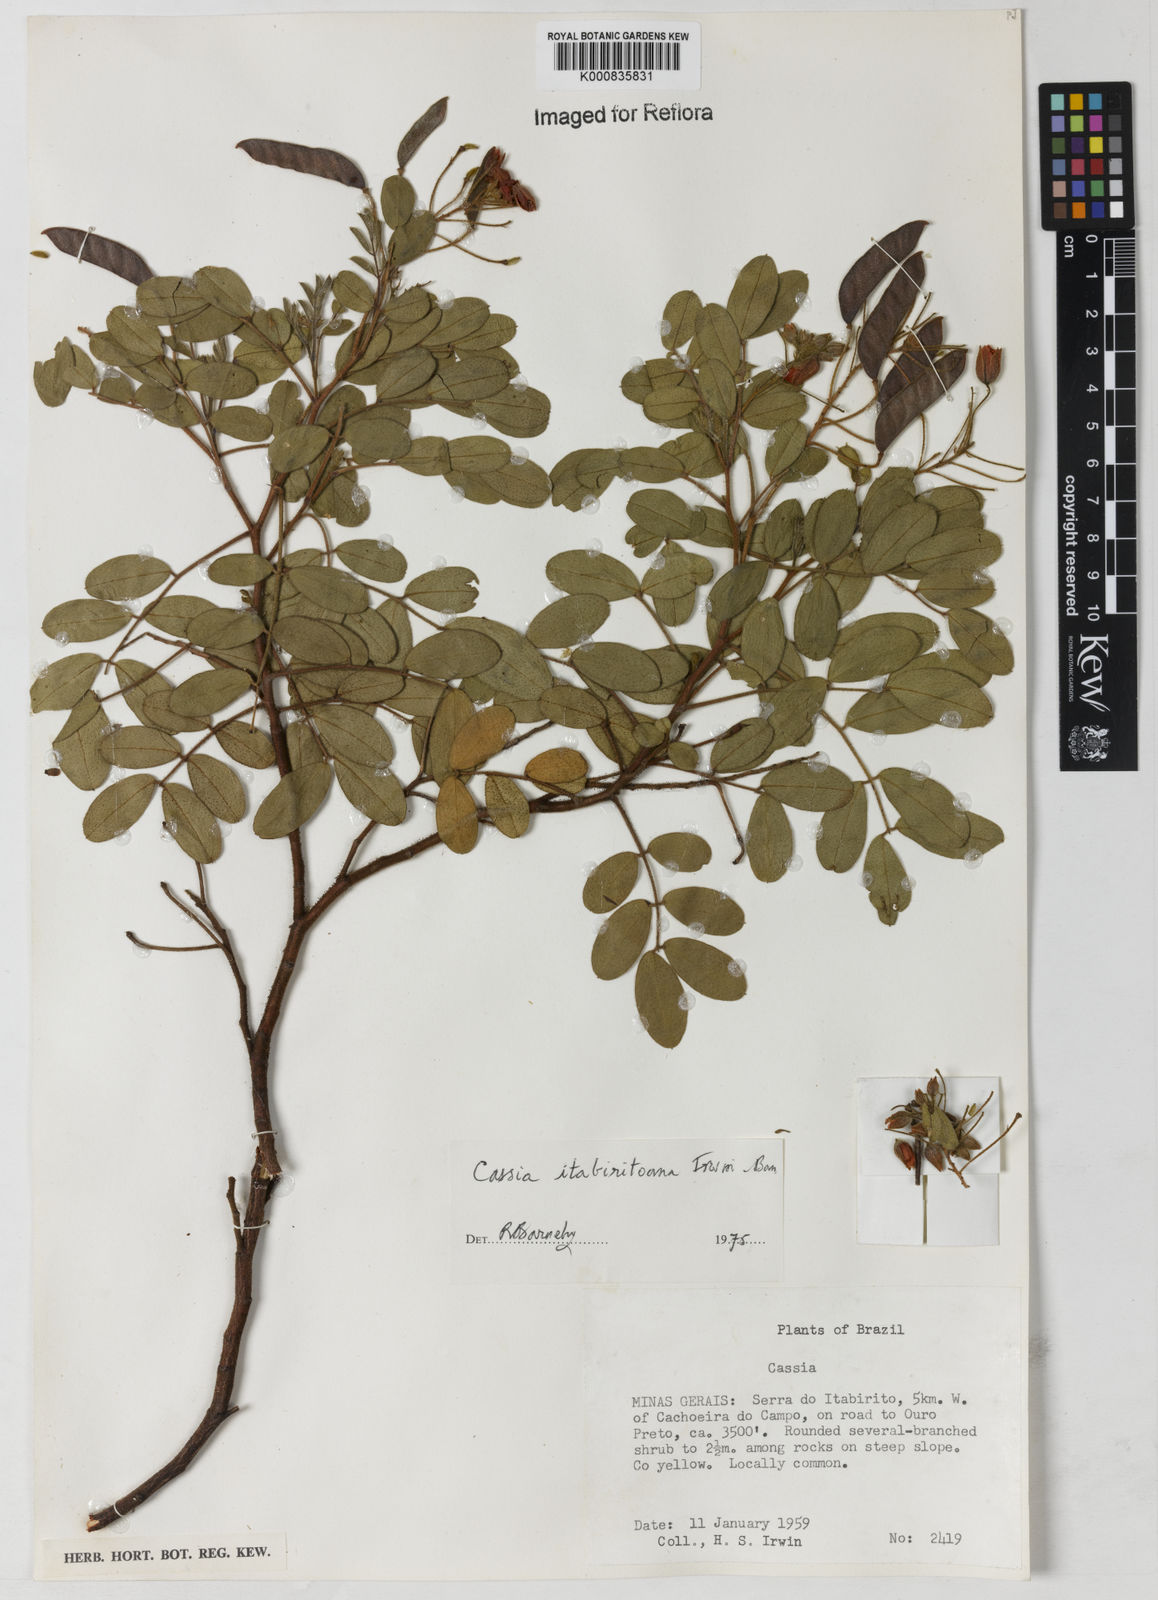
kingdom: Plantae
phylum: Tracheophyta
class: Magnoliopsida
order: Fabales
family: Fabaceae
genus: Chamaecrista
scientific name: Chamaecrista itabiritoana
